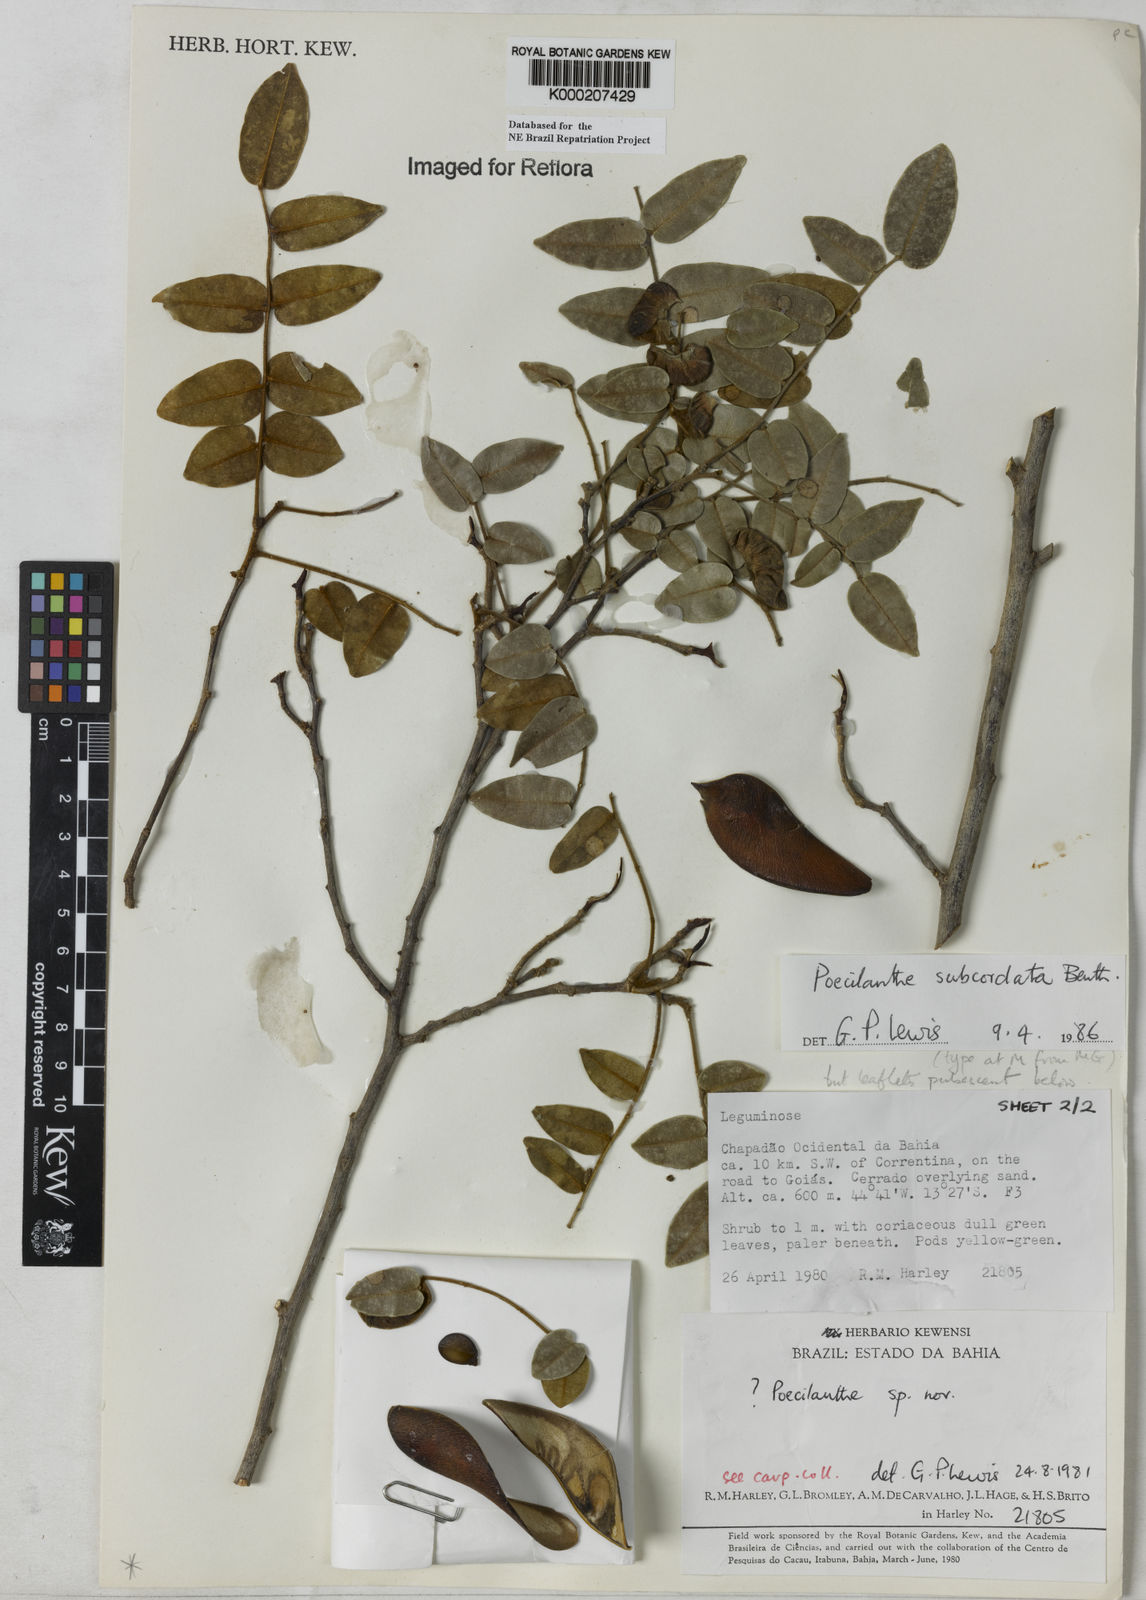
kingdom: Plantae
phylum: Tracheophyta
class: Magnoliopsida
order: Fabales
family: Fabaceae
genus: Poecilanthe
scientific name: Poecilanthe subcordata
